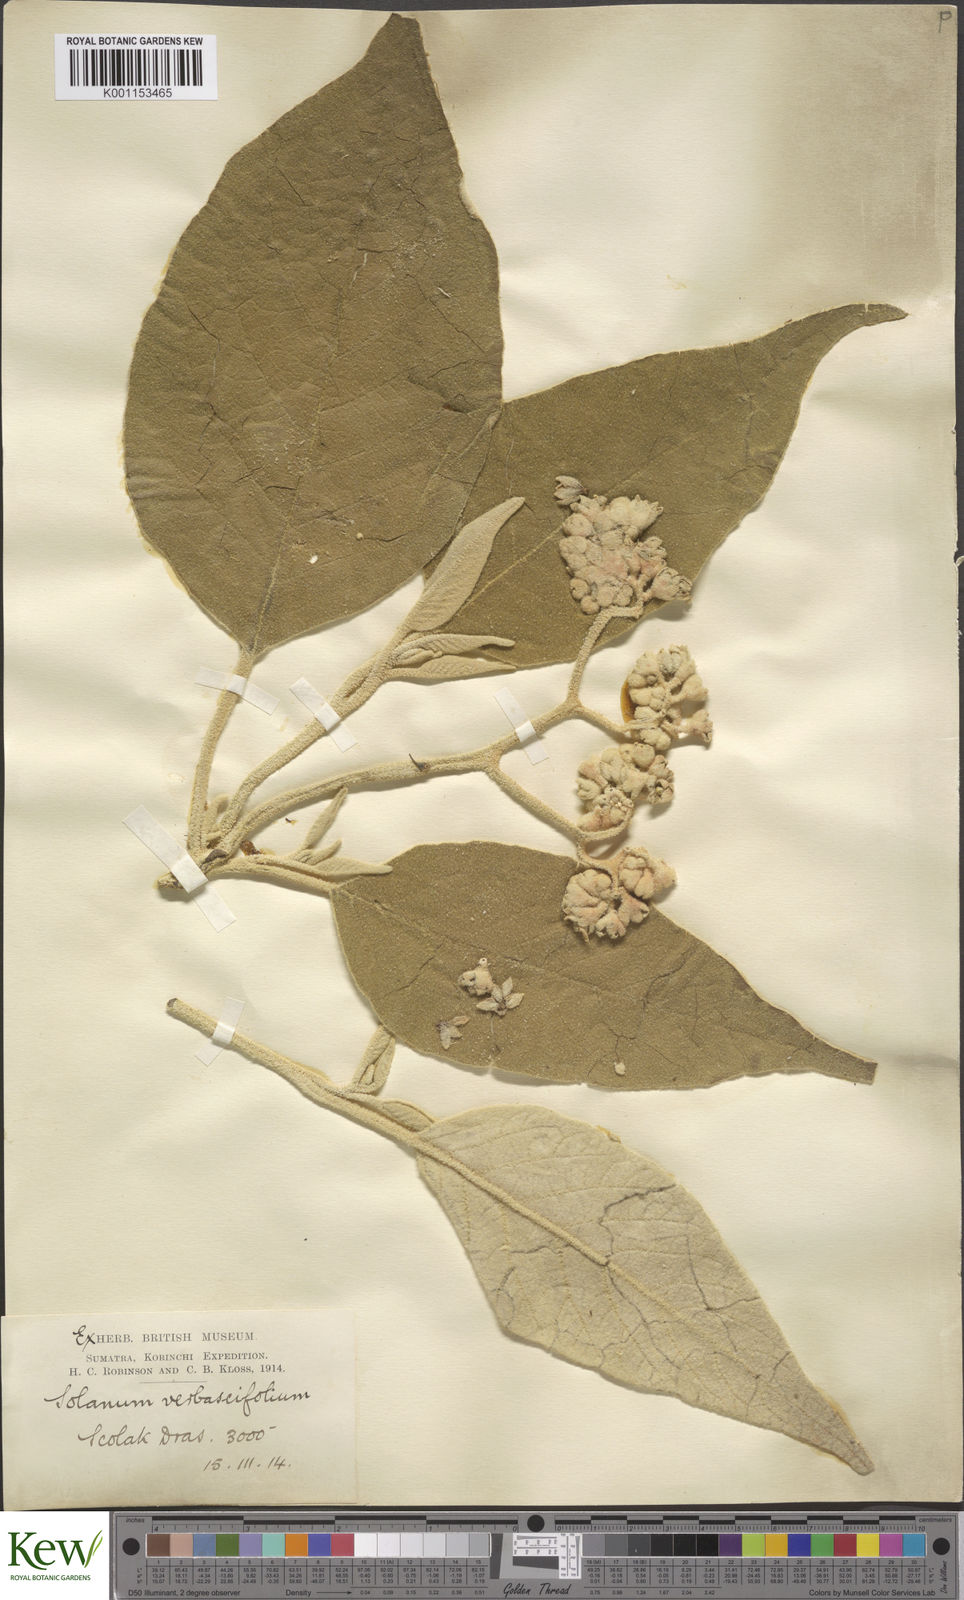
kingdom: Plantae
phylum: Tracheophyta
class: Magnoliopsida
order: Solanales
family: Solanaceae
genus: Solanum
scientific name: Solanum donianum
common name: Mullein nightshade
